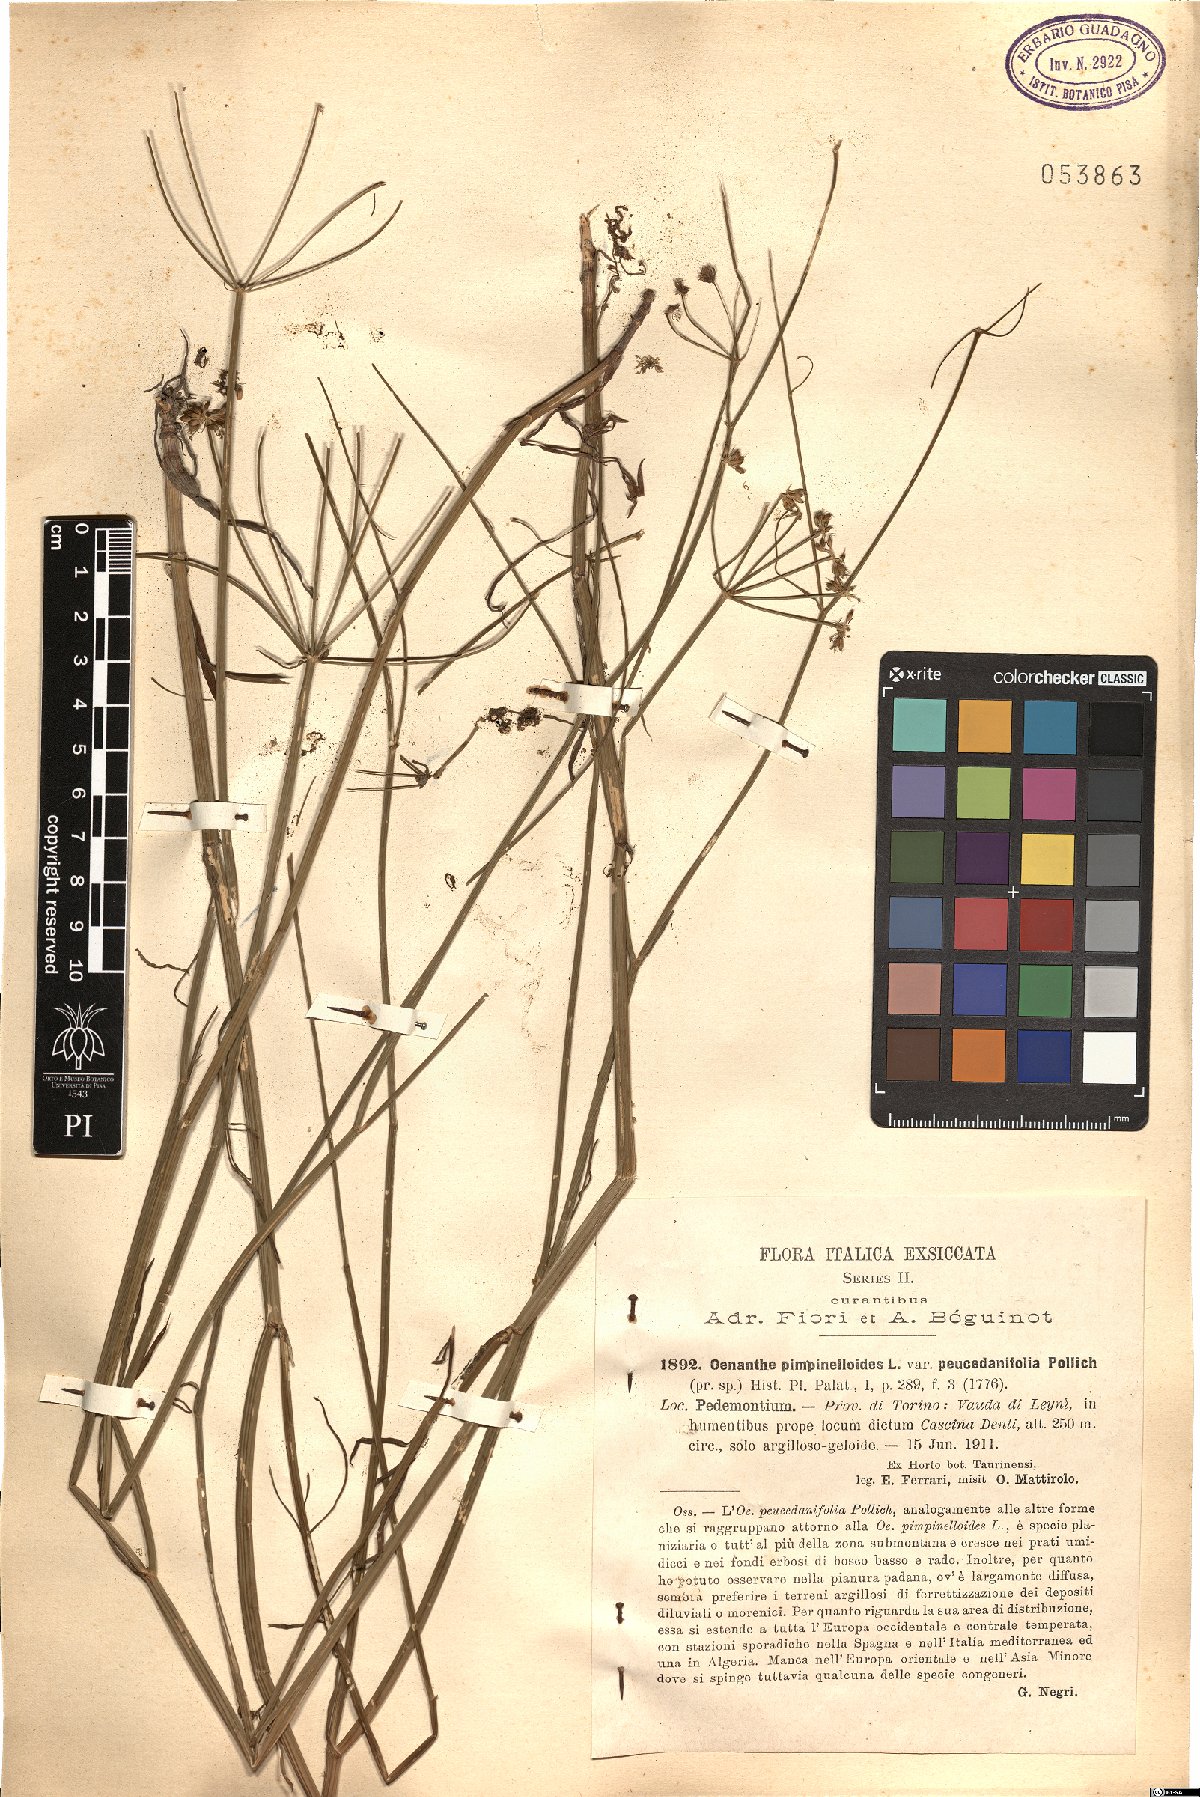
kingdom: Plantae
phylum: Tracheophyta
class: Magnoliopsida
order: Apiales
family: Apiaceae
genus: Oenanthe
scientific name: Oenanthe pimpinelloides
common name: Corky-fruited water-dropwort
